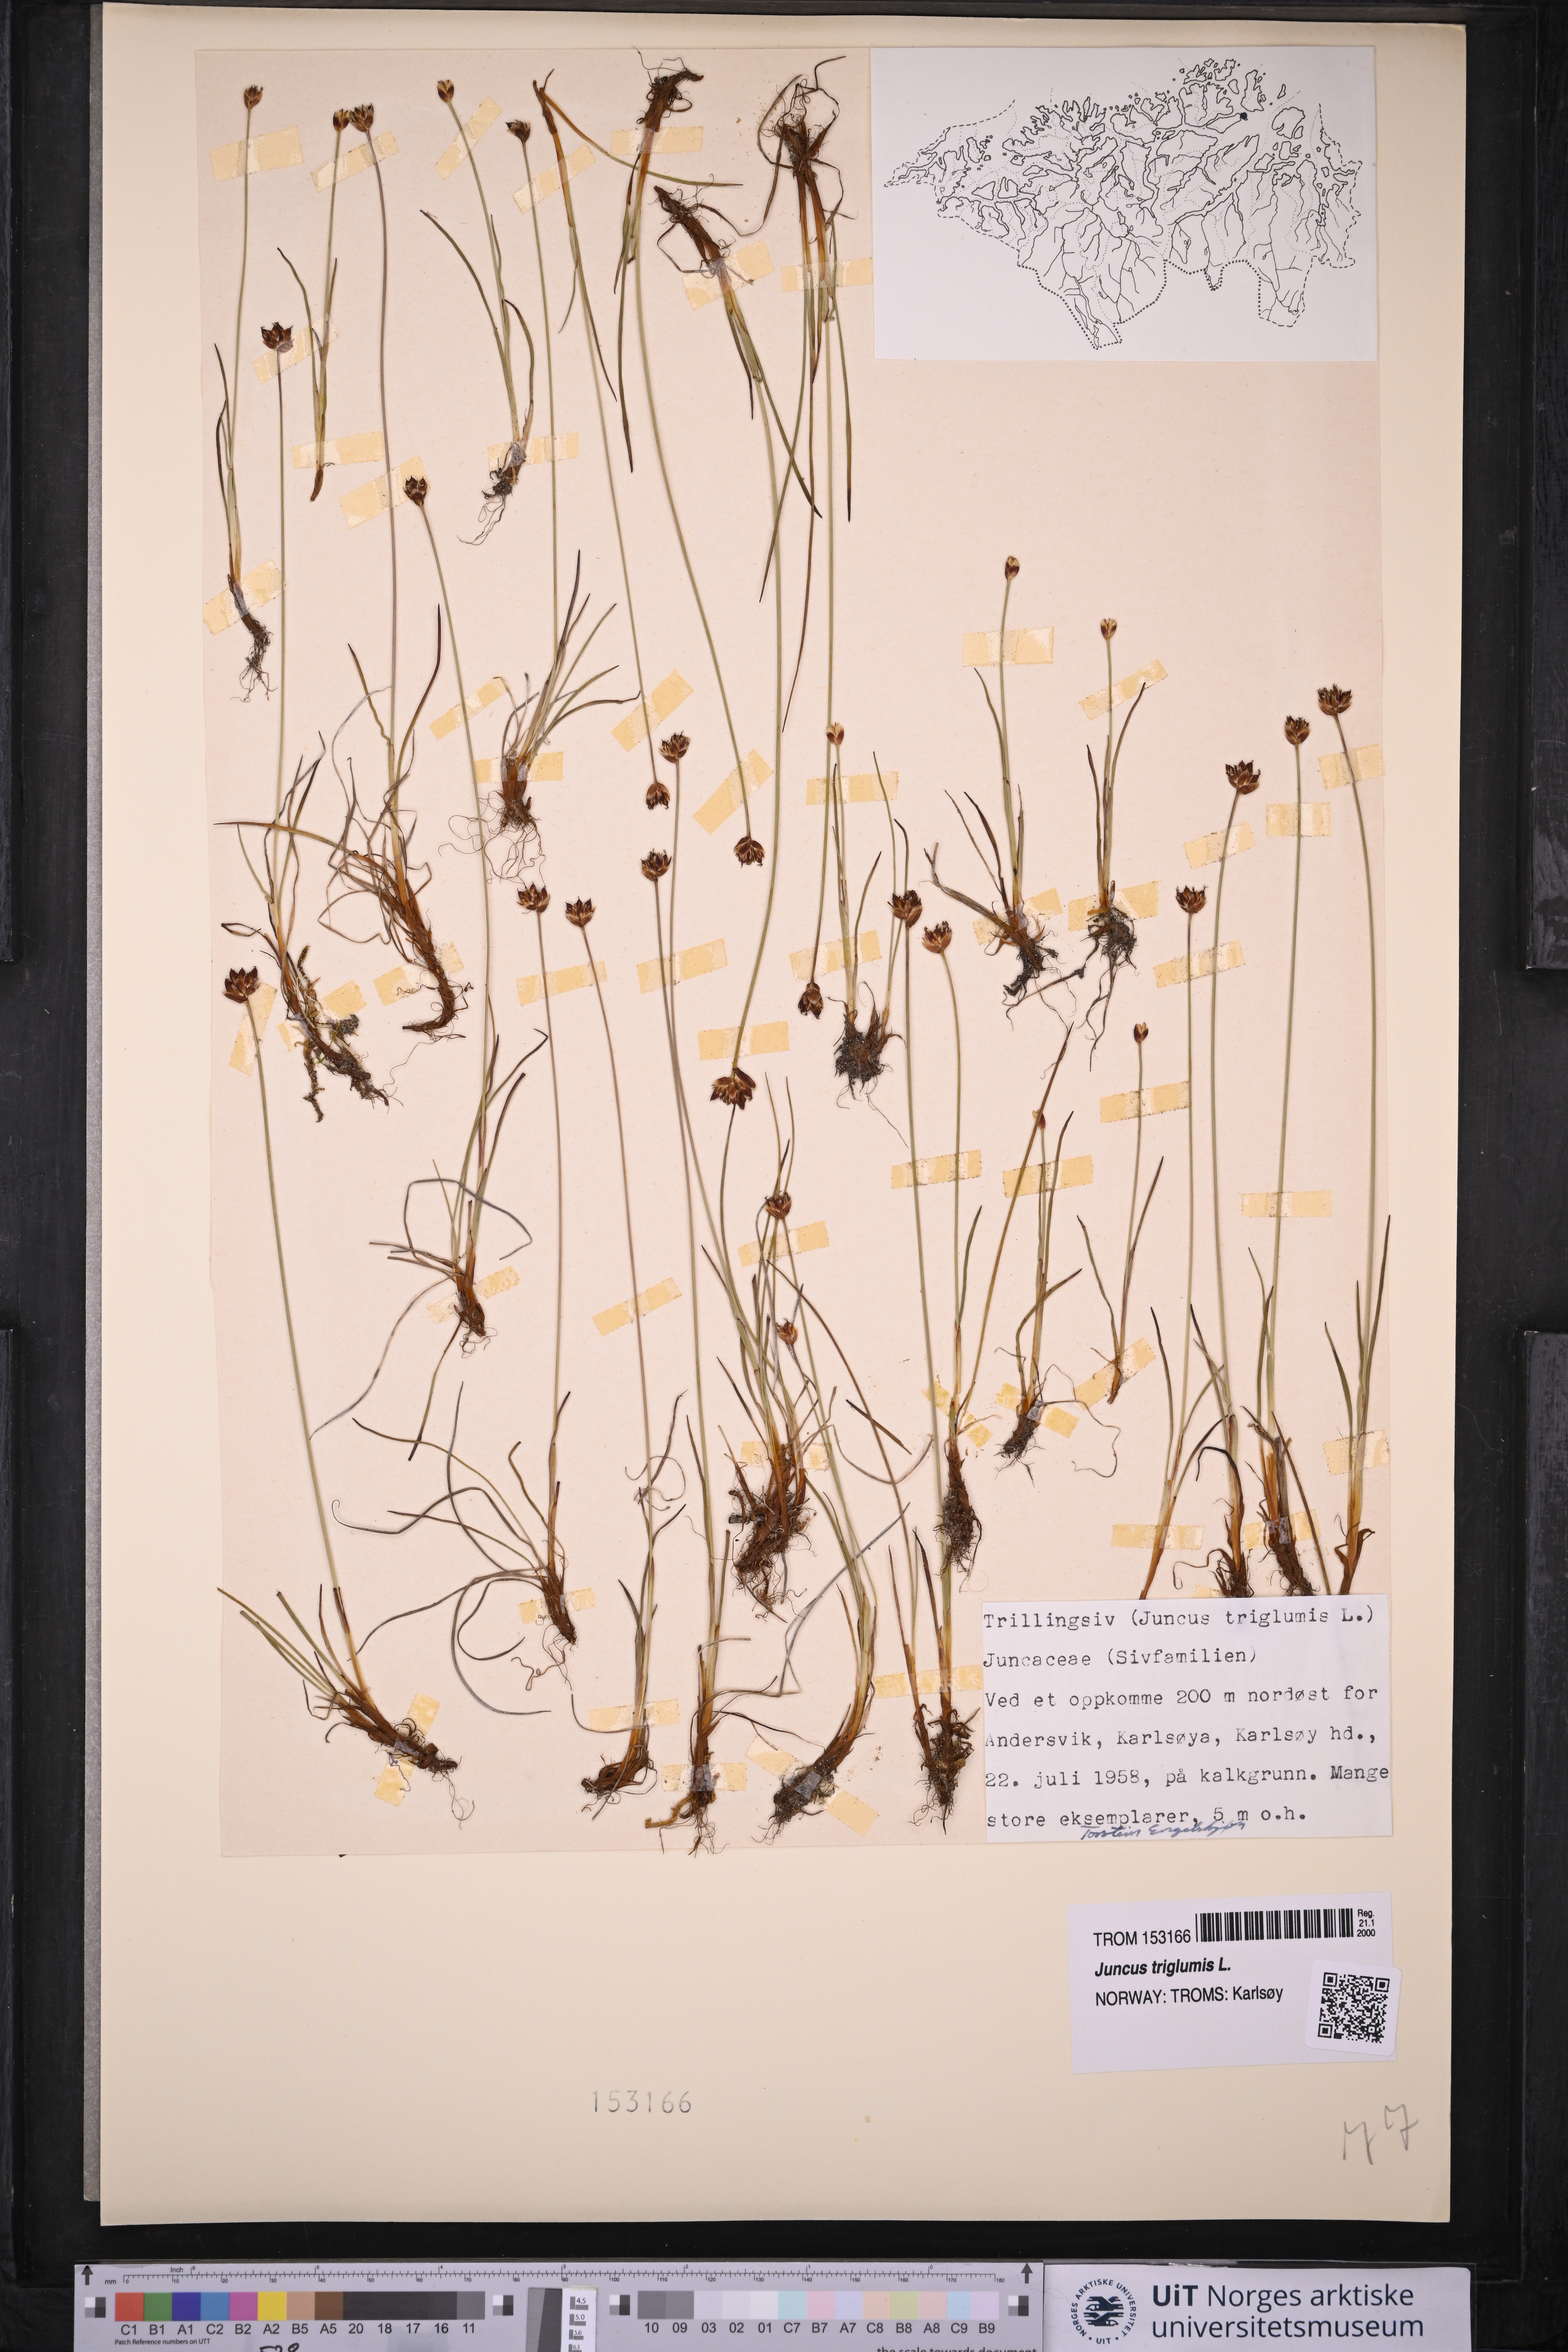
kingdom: Plantae
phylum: Tracheophyta
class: Liliopsida
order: Poales
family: Juncaceae
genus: Juncus
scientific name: Juncus triglumis
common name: Three-flowered rush
